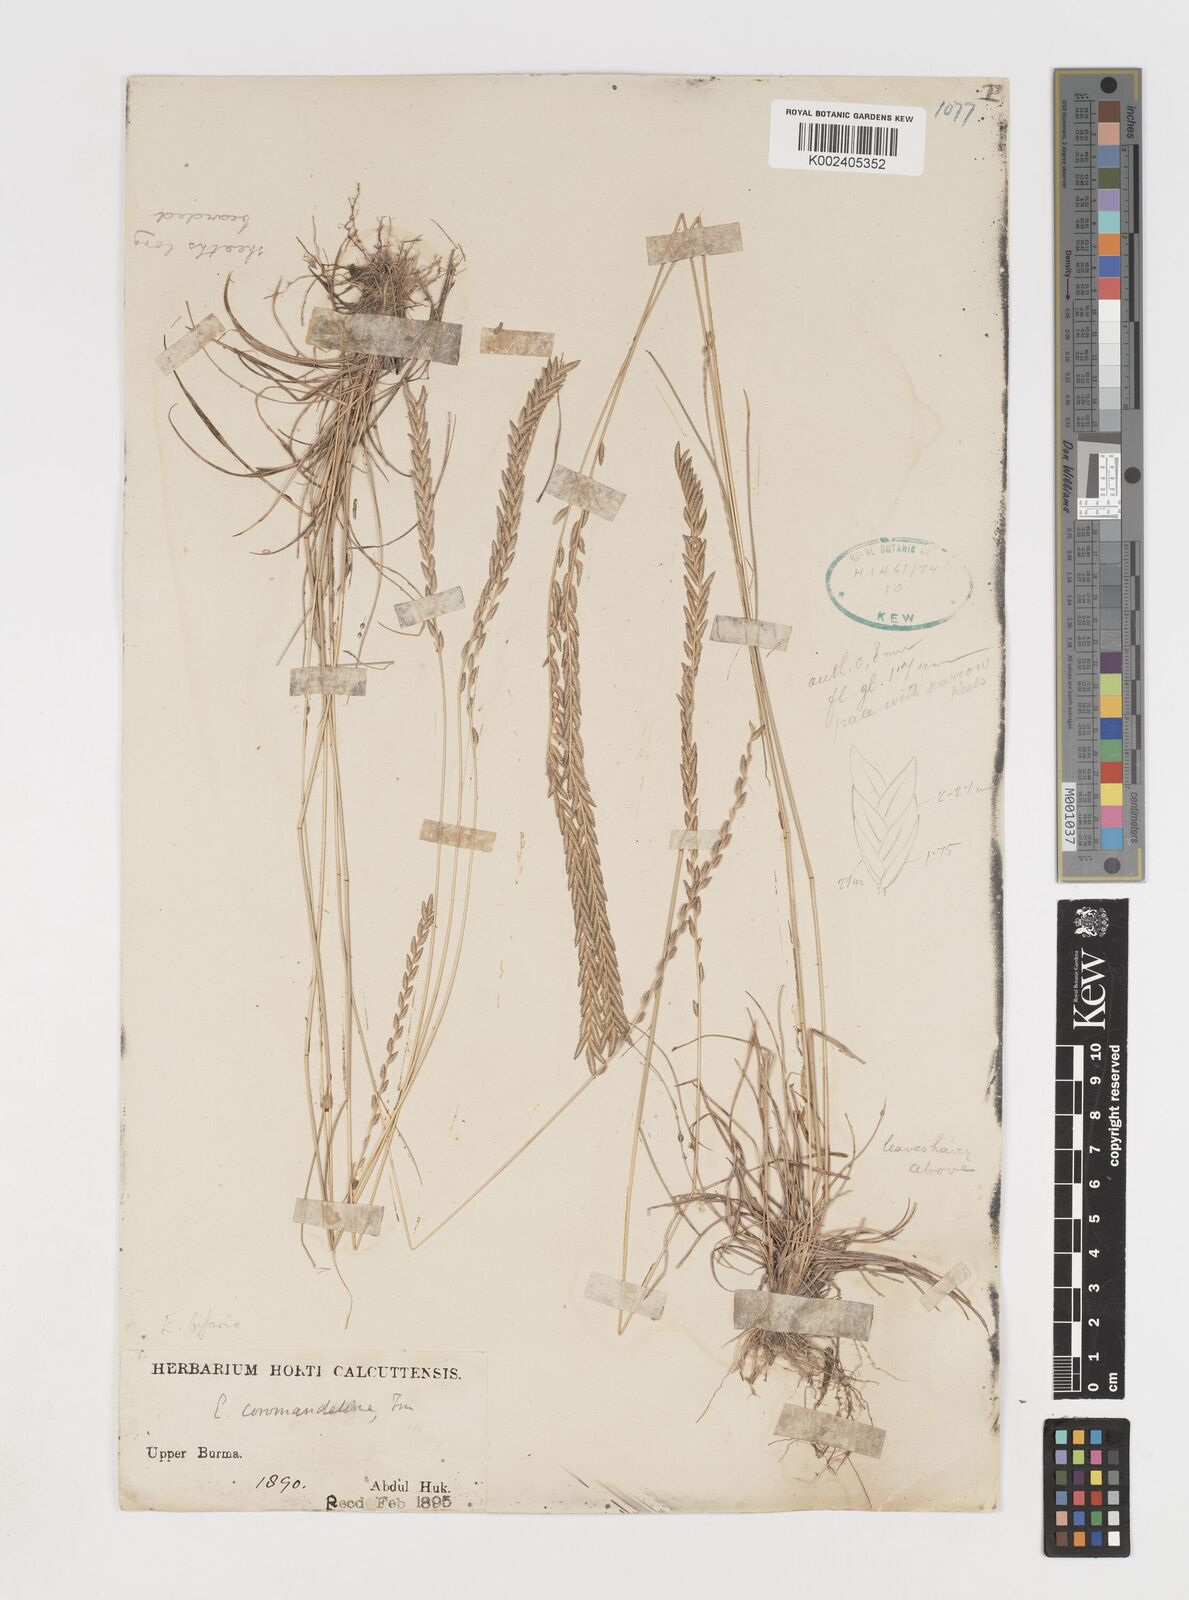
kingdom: Plantae
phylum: Tracheophyta
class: Liliopsida
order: Poales
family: Poaceae
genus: Eragrostiella
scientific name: Eragrostiella bifaria
